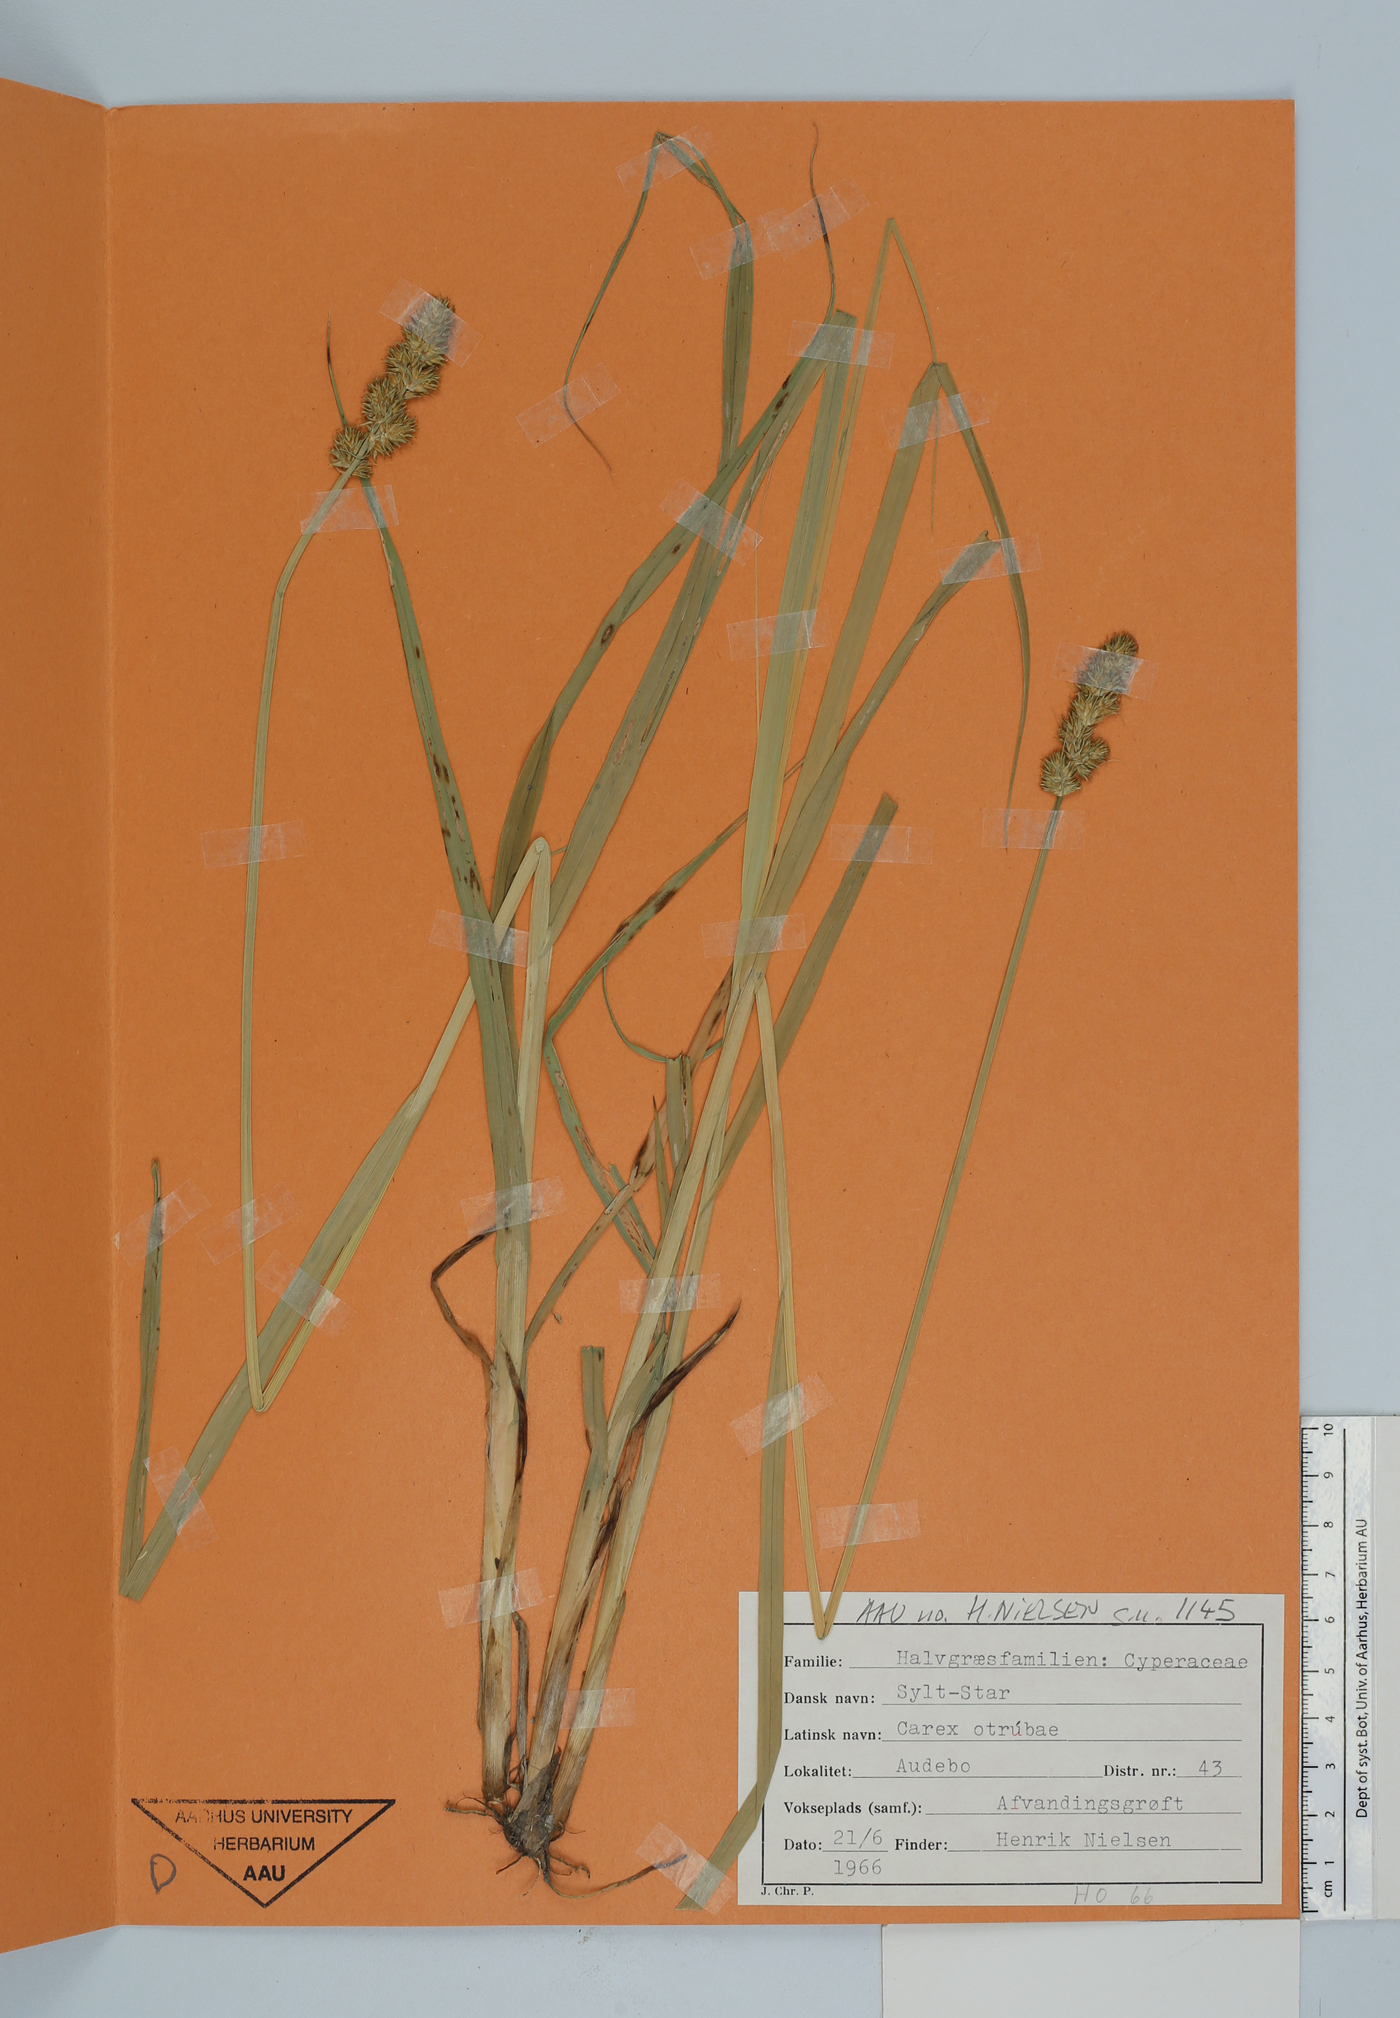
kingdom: Plantae
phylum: Tracheophyta
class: Liliopsida
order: Poales
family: Cyperaceae
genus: Carex
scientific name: Carex otrubae
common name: False fox-sedge
